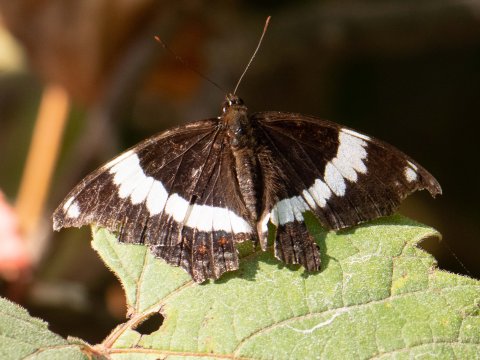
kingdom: Animalia
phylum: Arthropoda
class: Insecta
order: Lepidoptera
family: Nymphalidae
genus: Limenitis
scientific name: Limenitis arthemis
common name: Red-spotted Admiral
